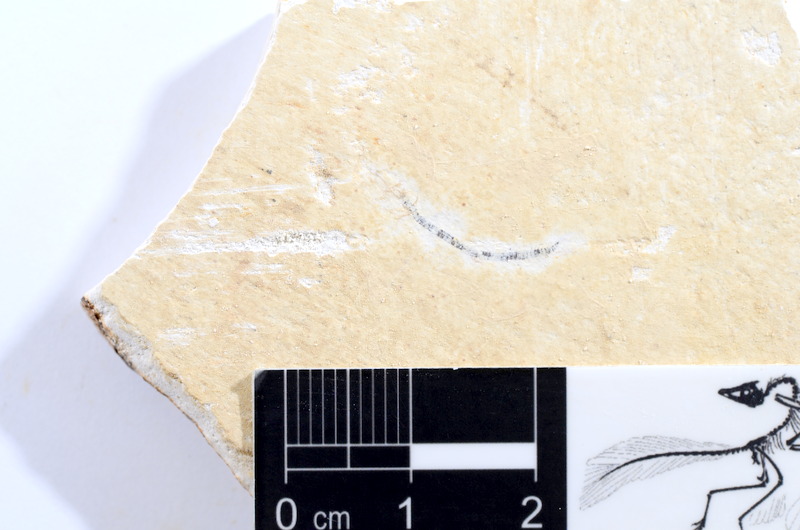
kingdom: Animalia
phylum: Chordata
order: Salmoniformes
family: Orthogonikleithridae
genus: Orthogonikleithrus
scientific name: Orthogonikleithrus hoelli
